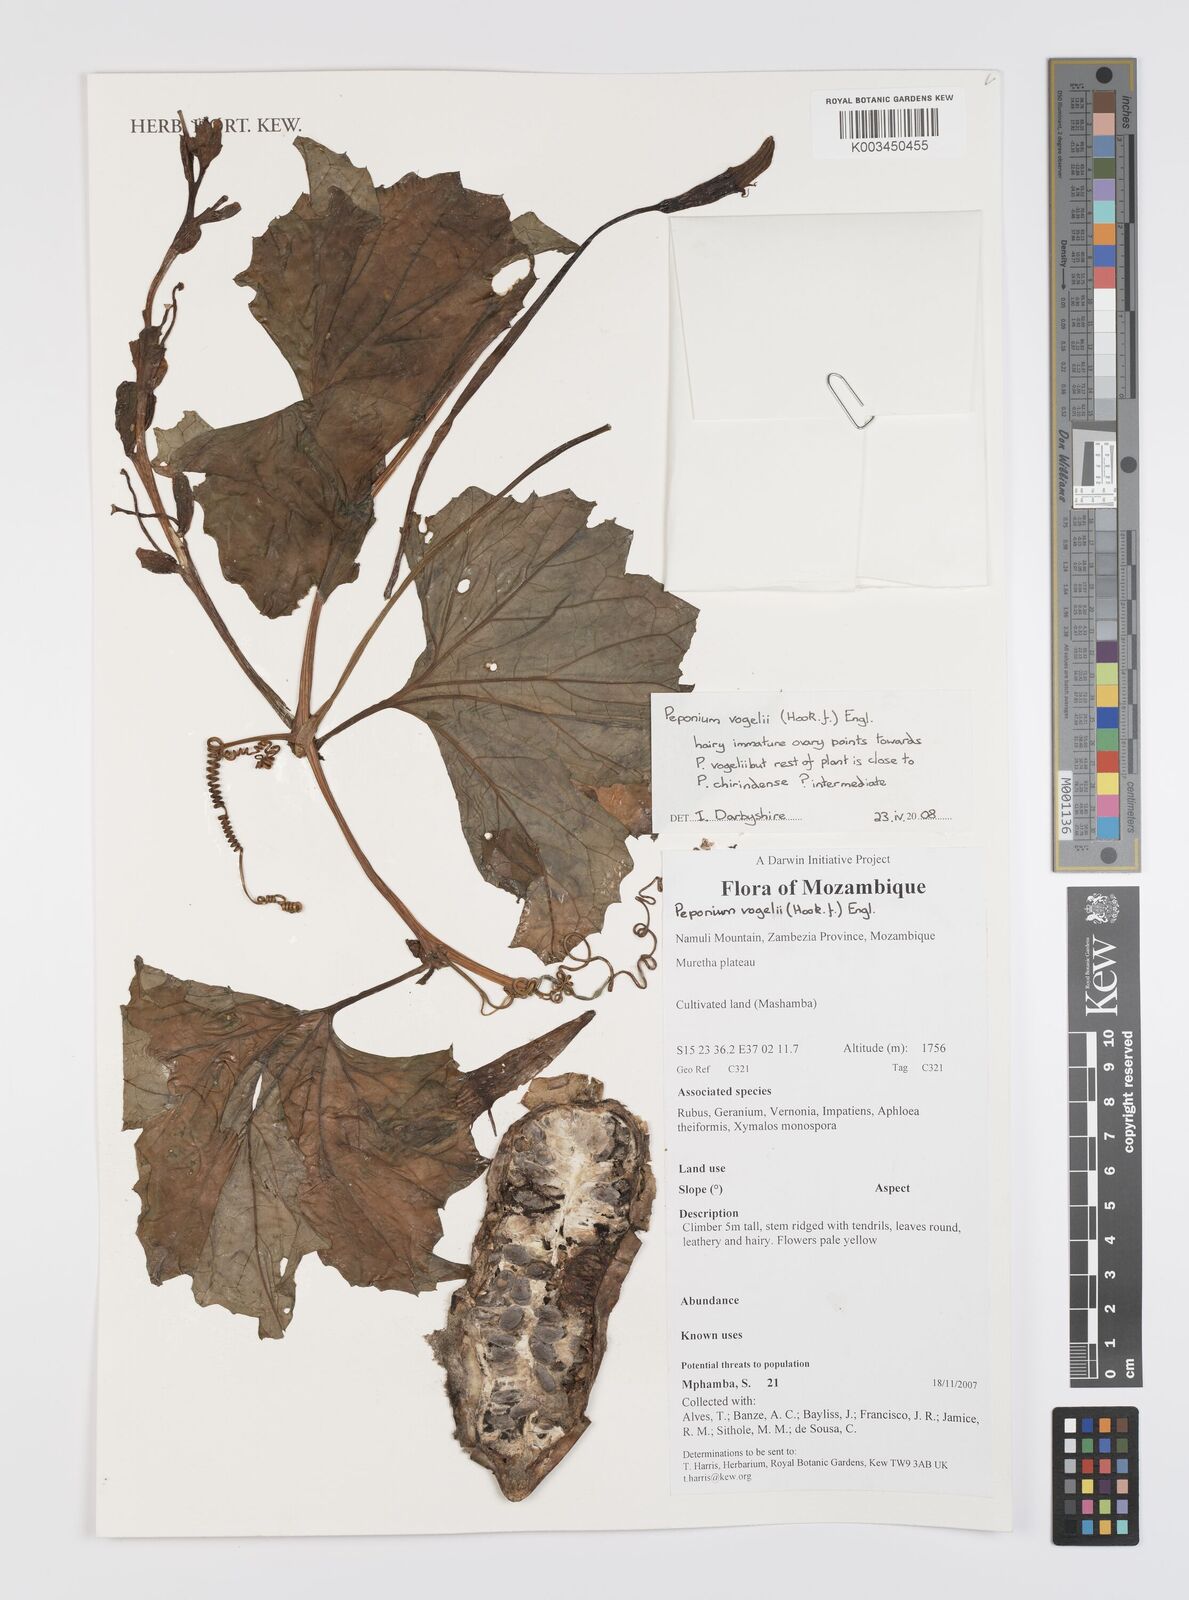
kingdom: Plantae
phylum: Tracheophyta
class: Magnoliopsida
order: Cucurbitales
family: Cucurbitaceae
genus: Peponium
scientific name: Peponium vogelii
